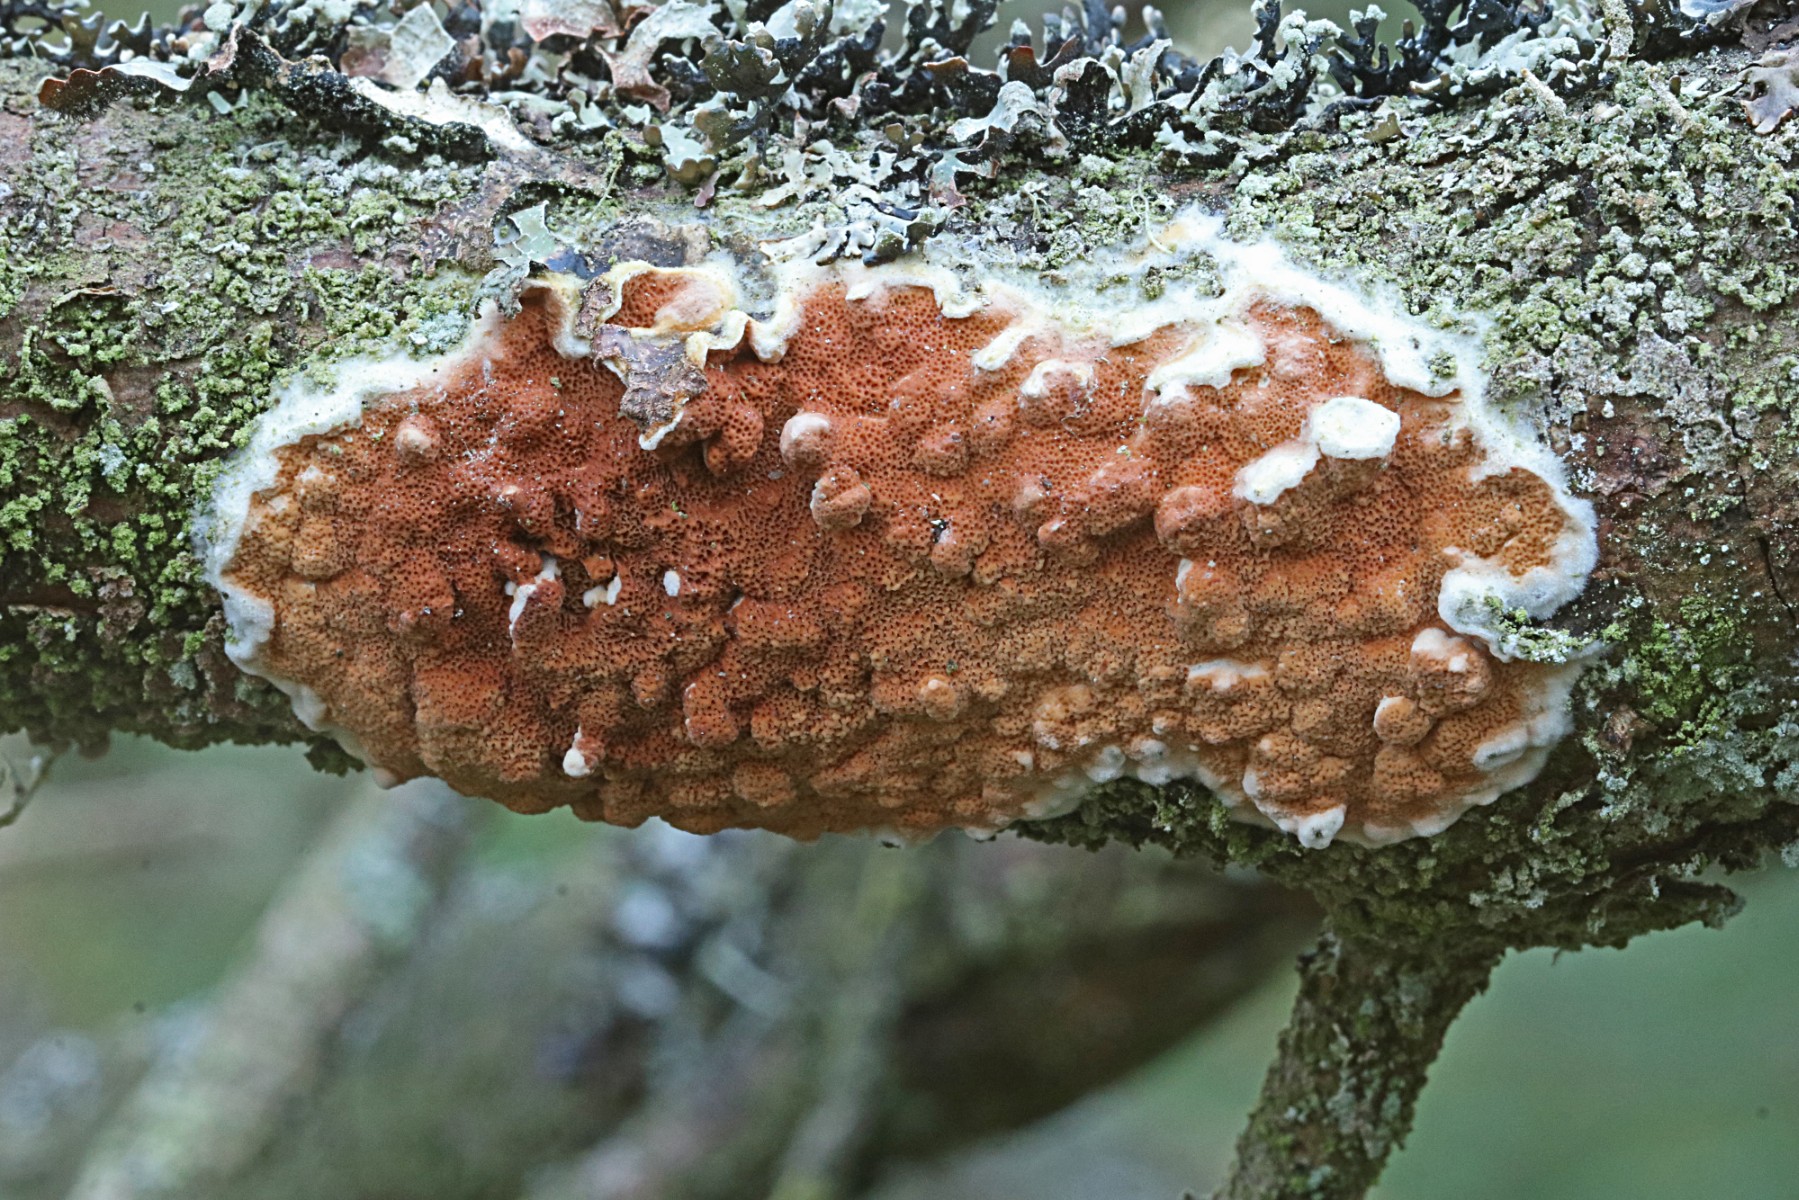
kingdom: Fungi
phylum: Basidiomycota
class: Agaricomycetes
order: Polyporales
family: Irpicaceae
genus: Meruliopsis
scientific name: Meruliopsis taxicola
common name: purpurbrun foldporesvamp
